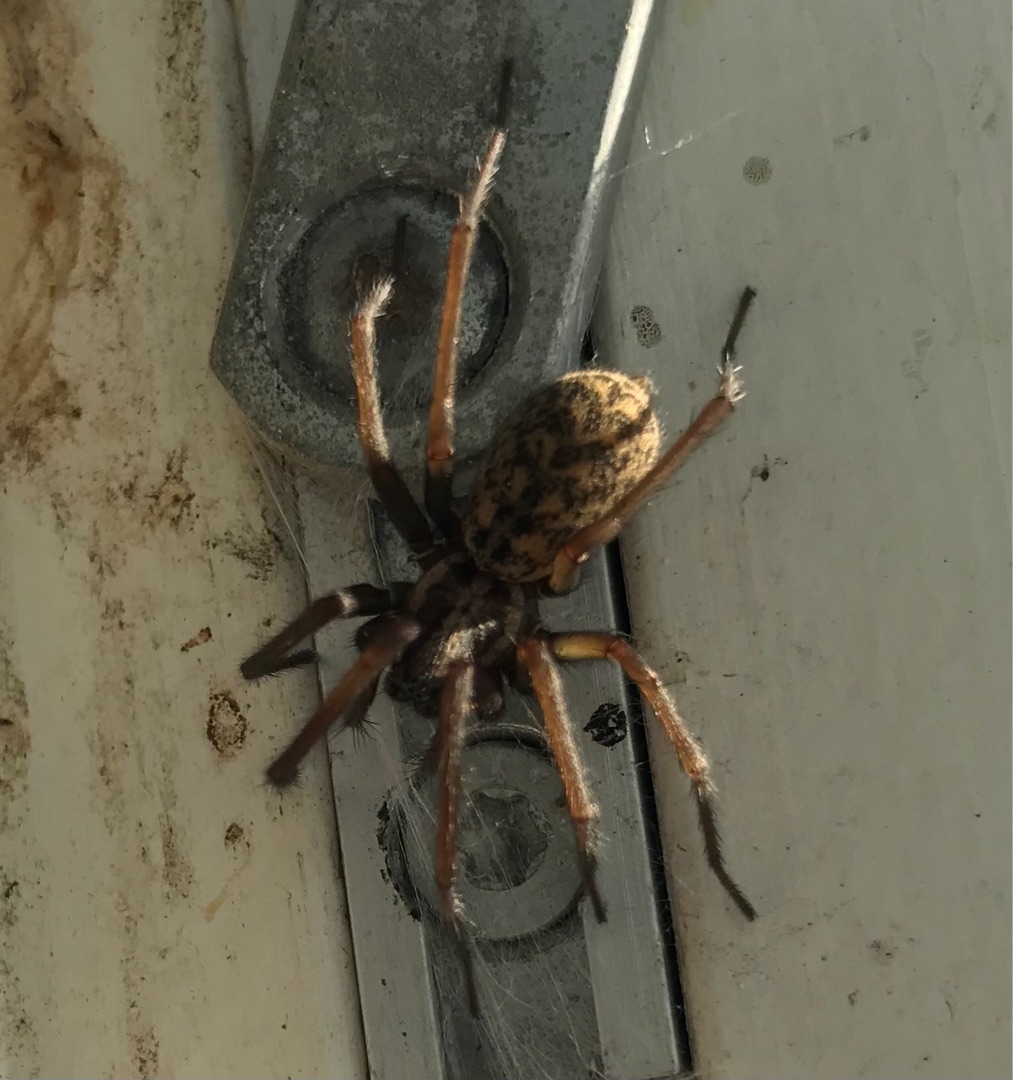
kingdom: Animalia
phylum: Arthropoda
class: Arachnida
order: Araneae
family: Agelenidae
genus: Eratigena
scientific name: Eratigena atrica
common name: Stor husedderkop
